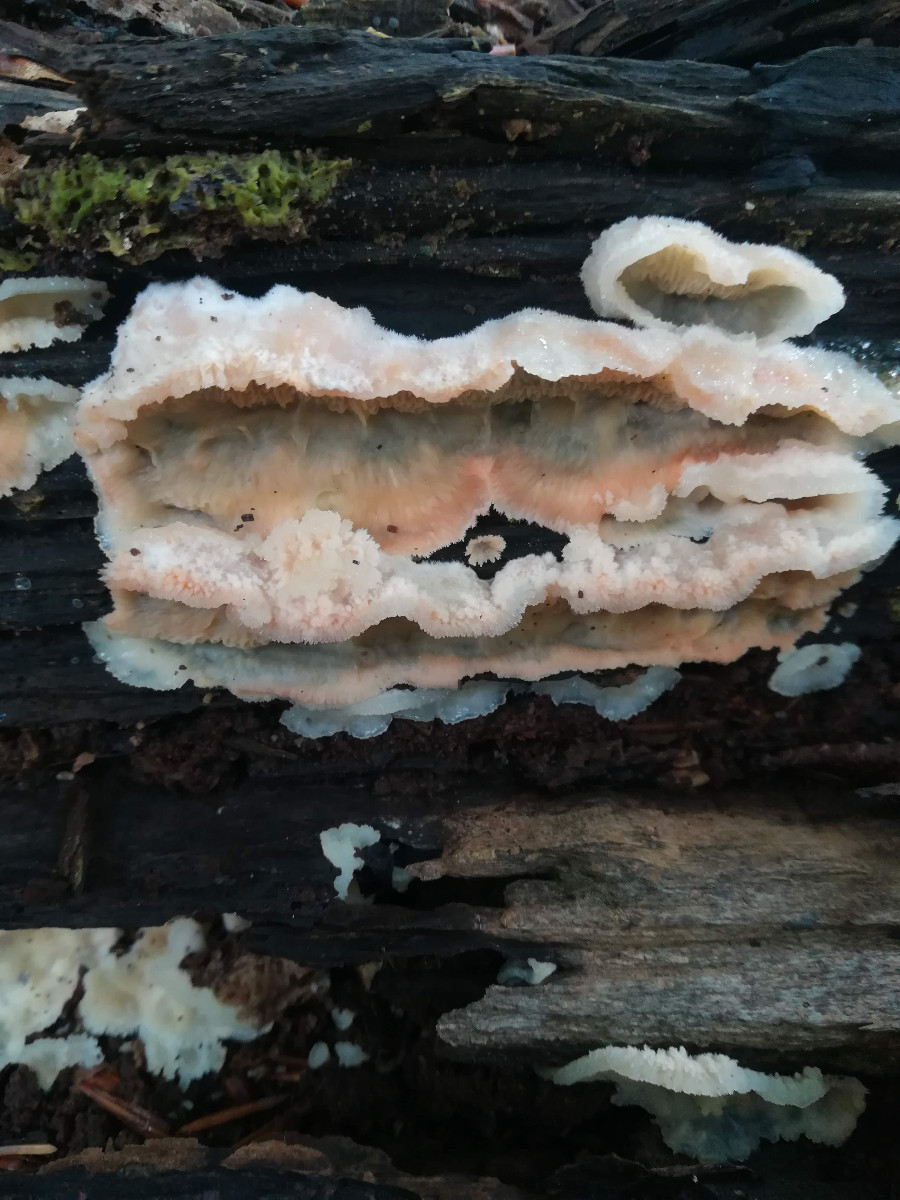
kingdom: Fungi
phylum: Basidiomycota
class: Agaricomycetes
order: Polyporales
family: Meruliaceae
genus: Phlebia
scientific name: Phlebia tremellosa
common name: bævrende åresvamp
